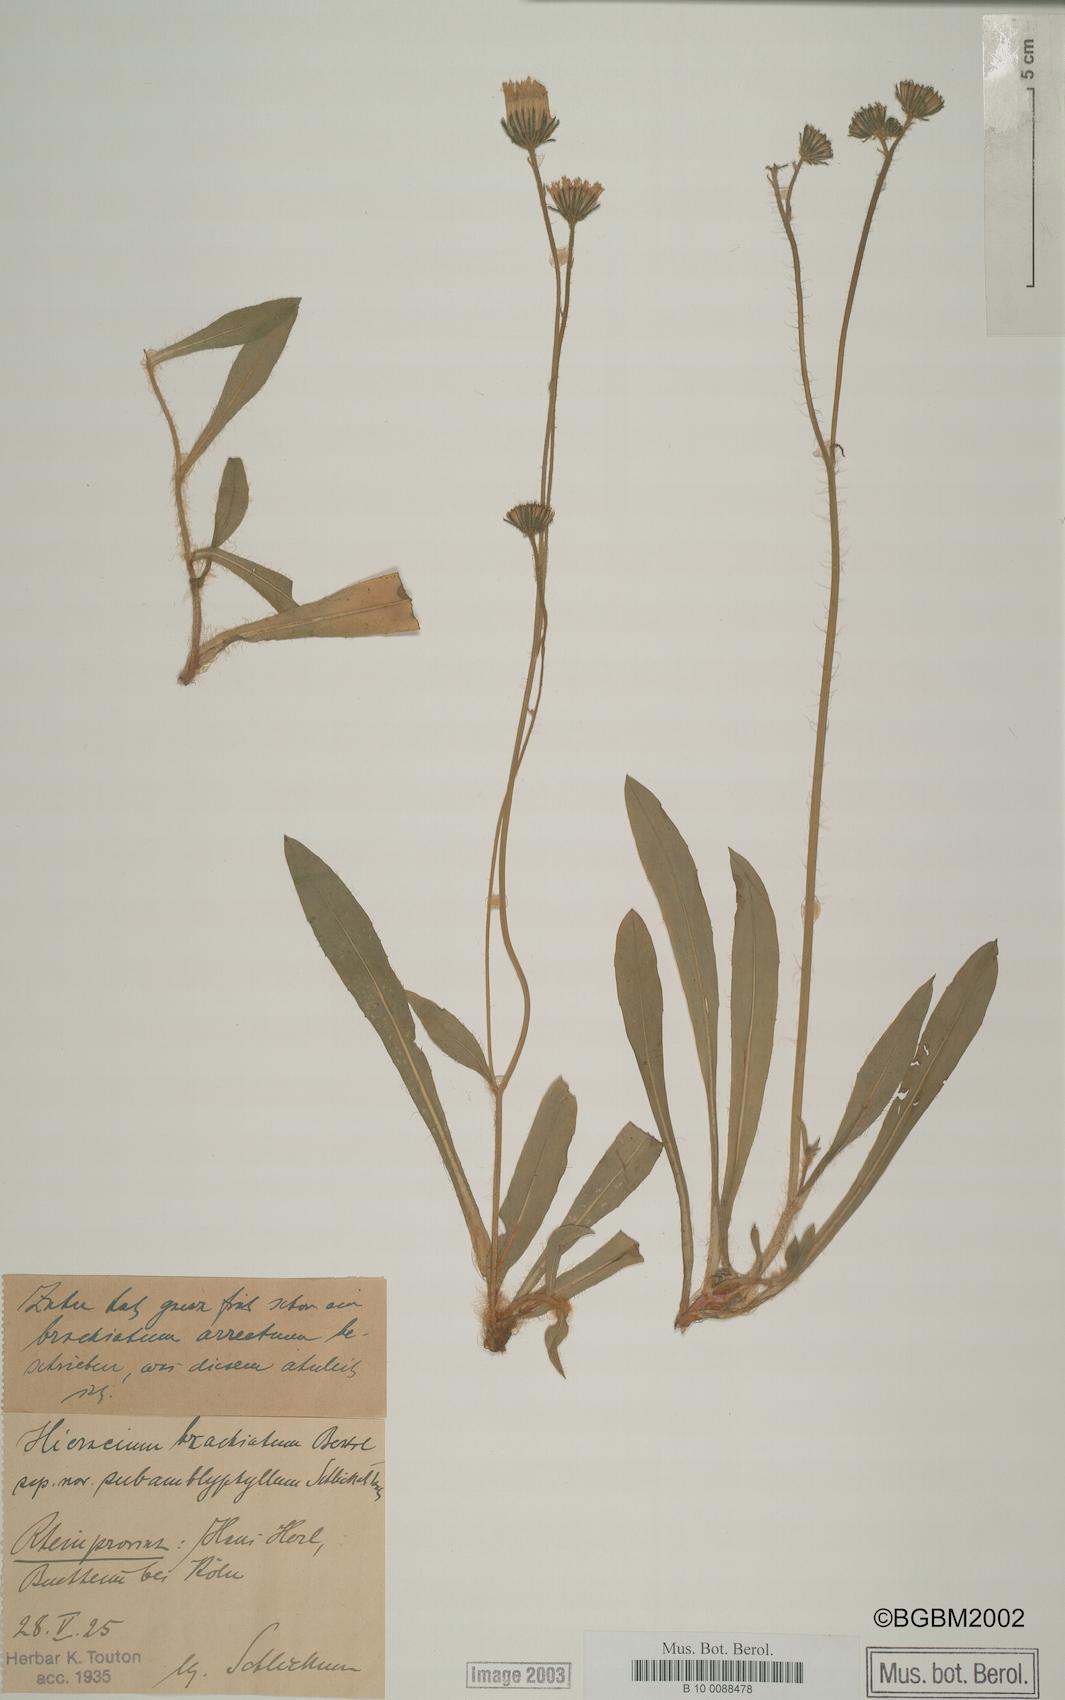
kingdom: Plantae
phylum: Tracheophyta
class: Magnoliopsida
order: Asterales
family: Asteraceae
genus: Pilosella
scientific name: Pilosella acutifolia
